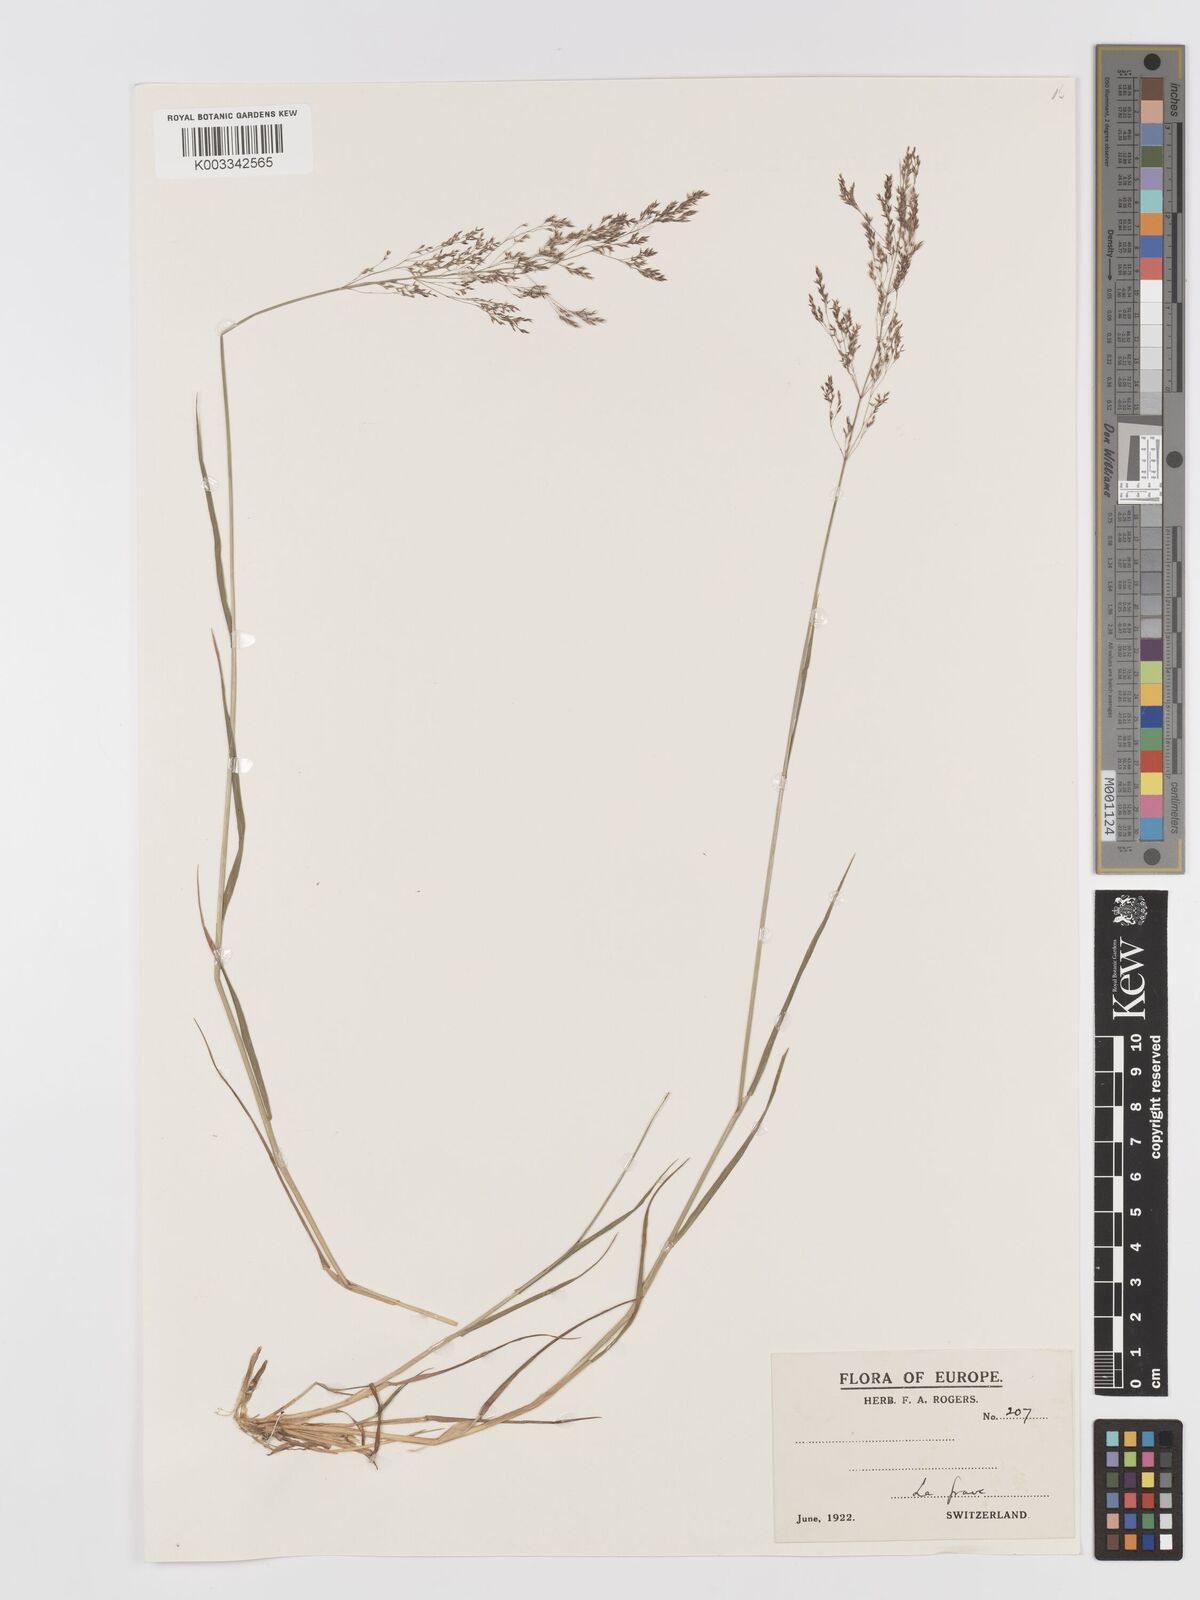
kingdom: Plantae
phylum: Tracheophyta
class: Liliopsida
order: Poales
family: Poaceae
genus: Agrostis
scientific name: Agrostis
